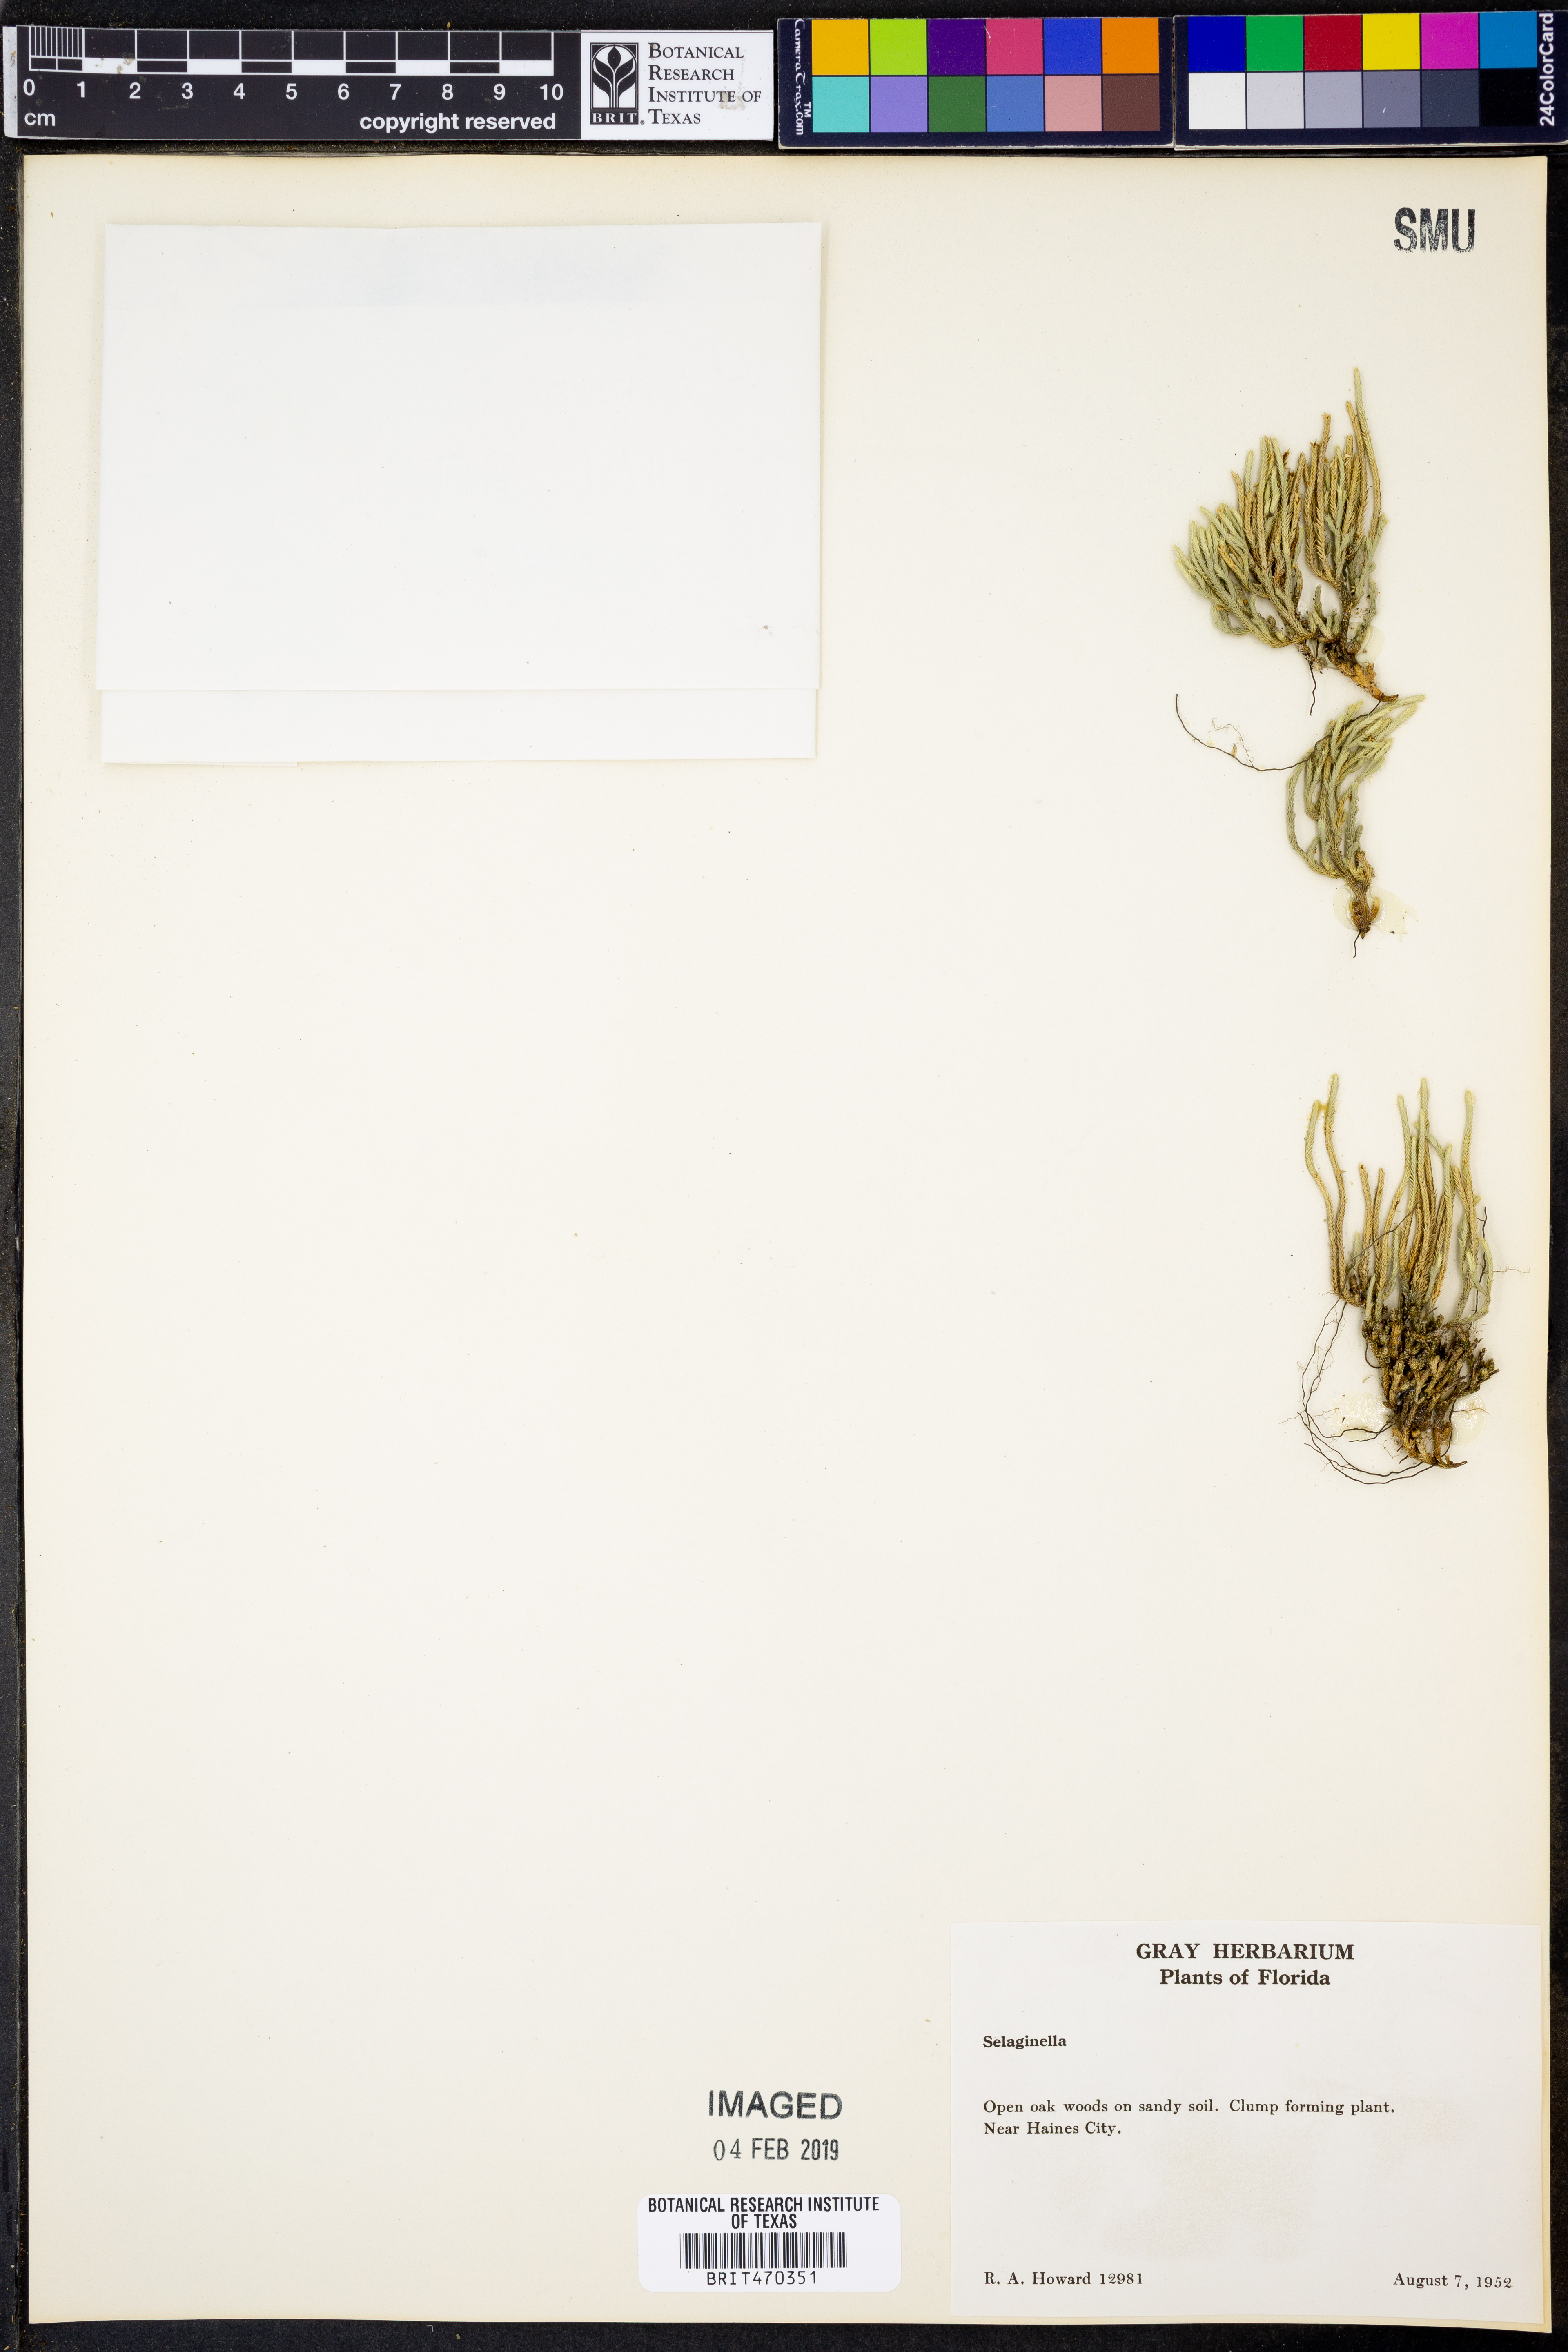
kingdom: Plantae
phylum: Tracheophyta
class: Lycopodiopsida
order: Selaginellales
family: Selaginellaceae
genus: Selaginella
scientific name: Selaginella
